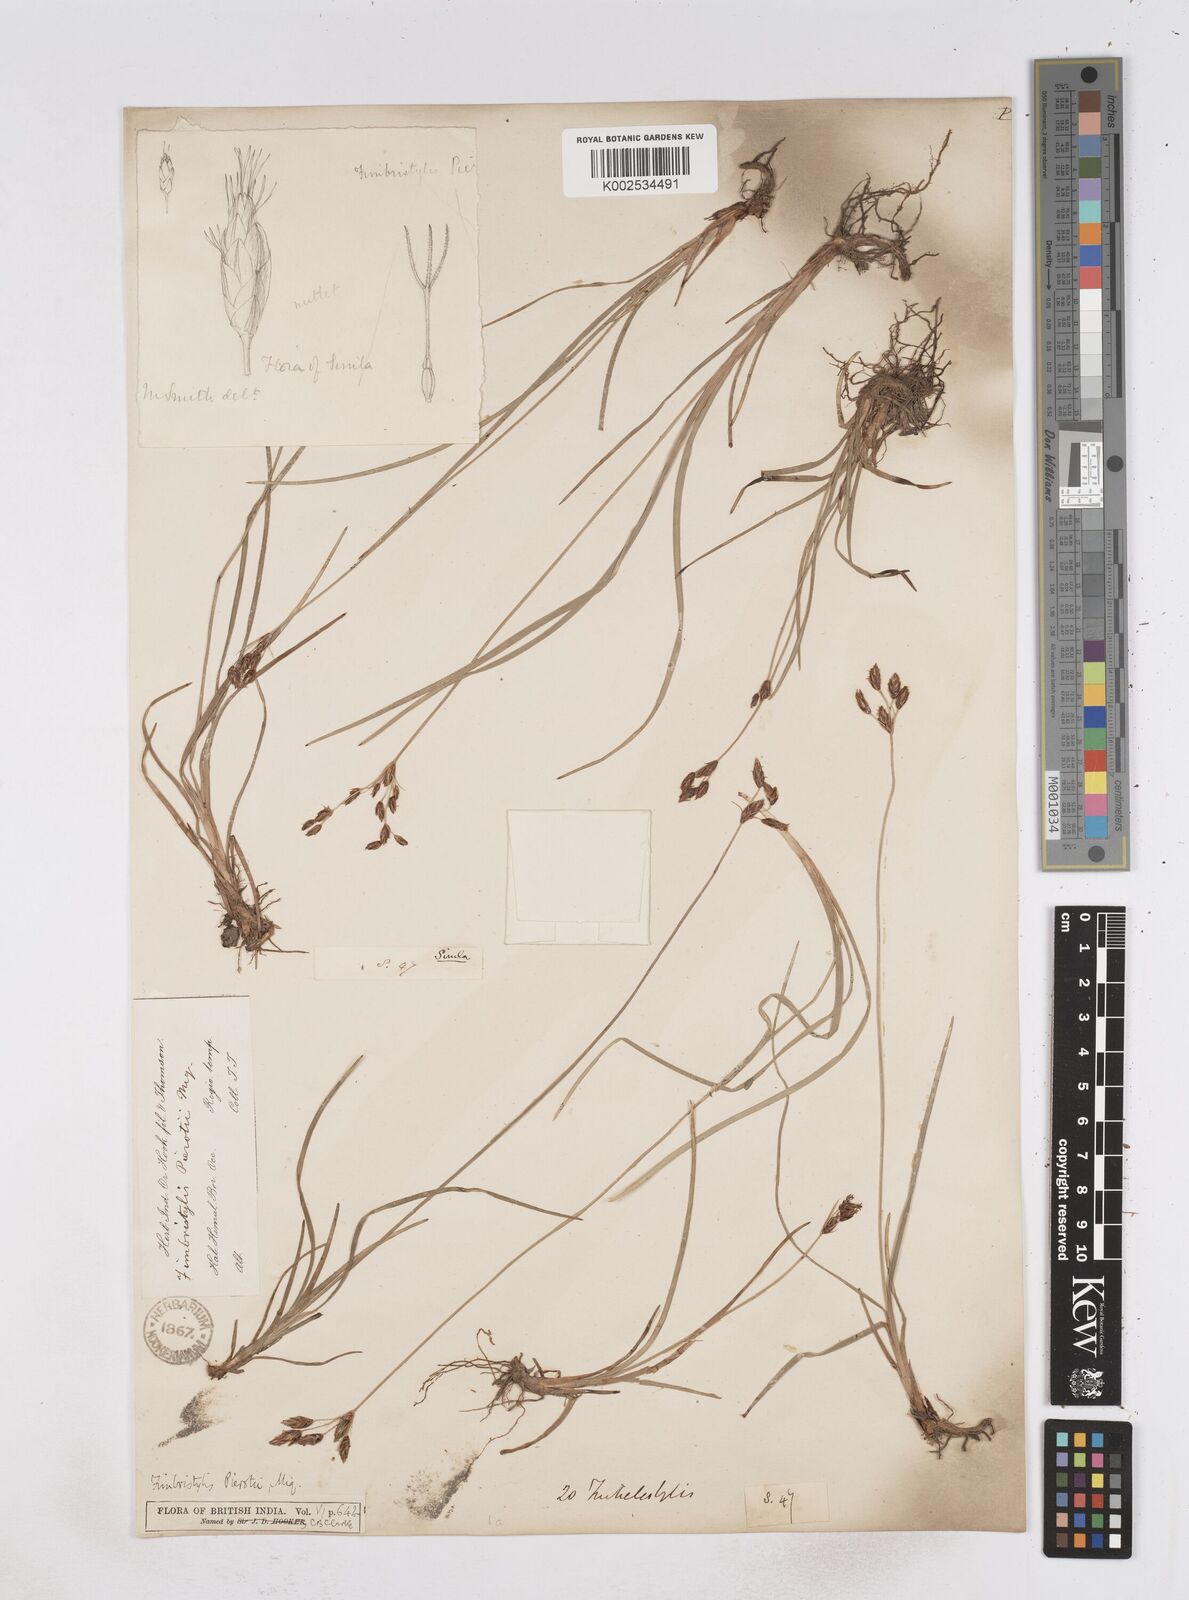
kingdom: Plantae
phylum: Tracheophyta
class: Liliopsida
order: Poales
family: Cyperaceae
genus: Fimbristylis
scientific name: Fimbristylis pierotii
